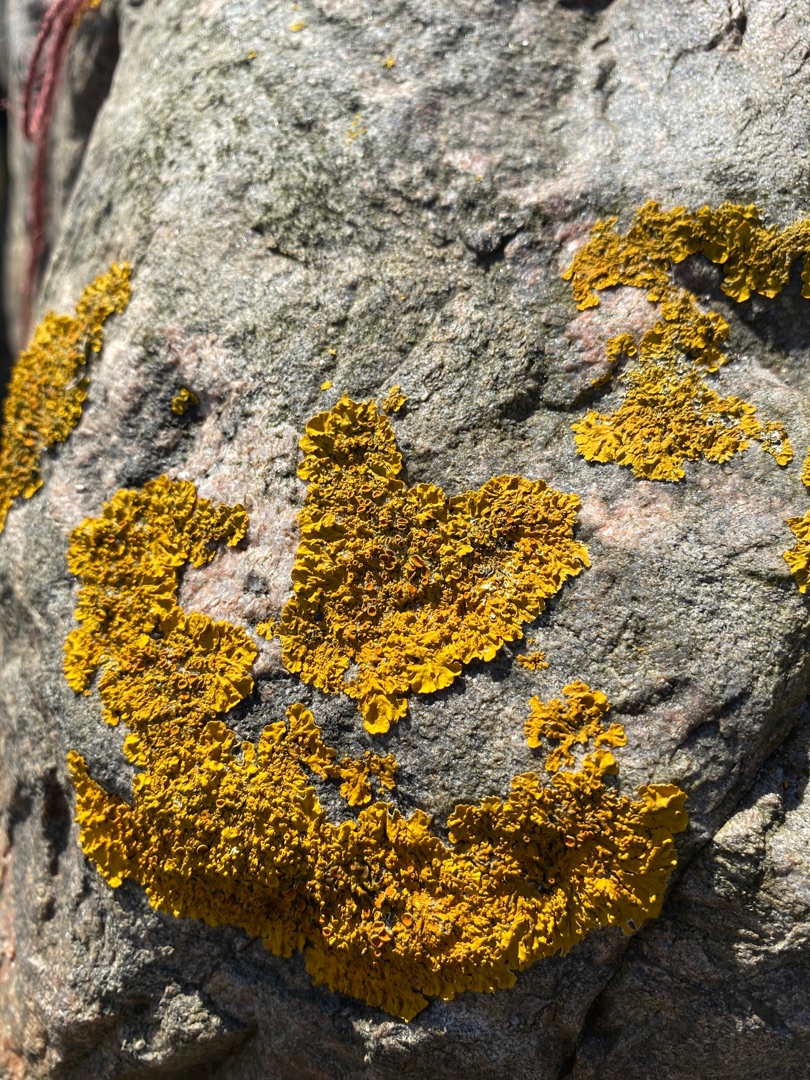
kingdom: Fungi
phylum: Ascomycota
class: Lecanoromycetes
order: Teloschistales
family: Teloschistaceae
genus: Xanthoria
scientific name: Xanthoria parietina
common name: Almindelig væggelav
